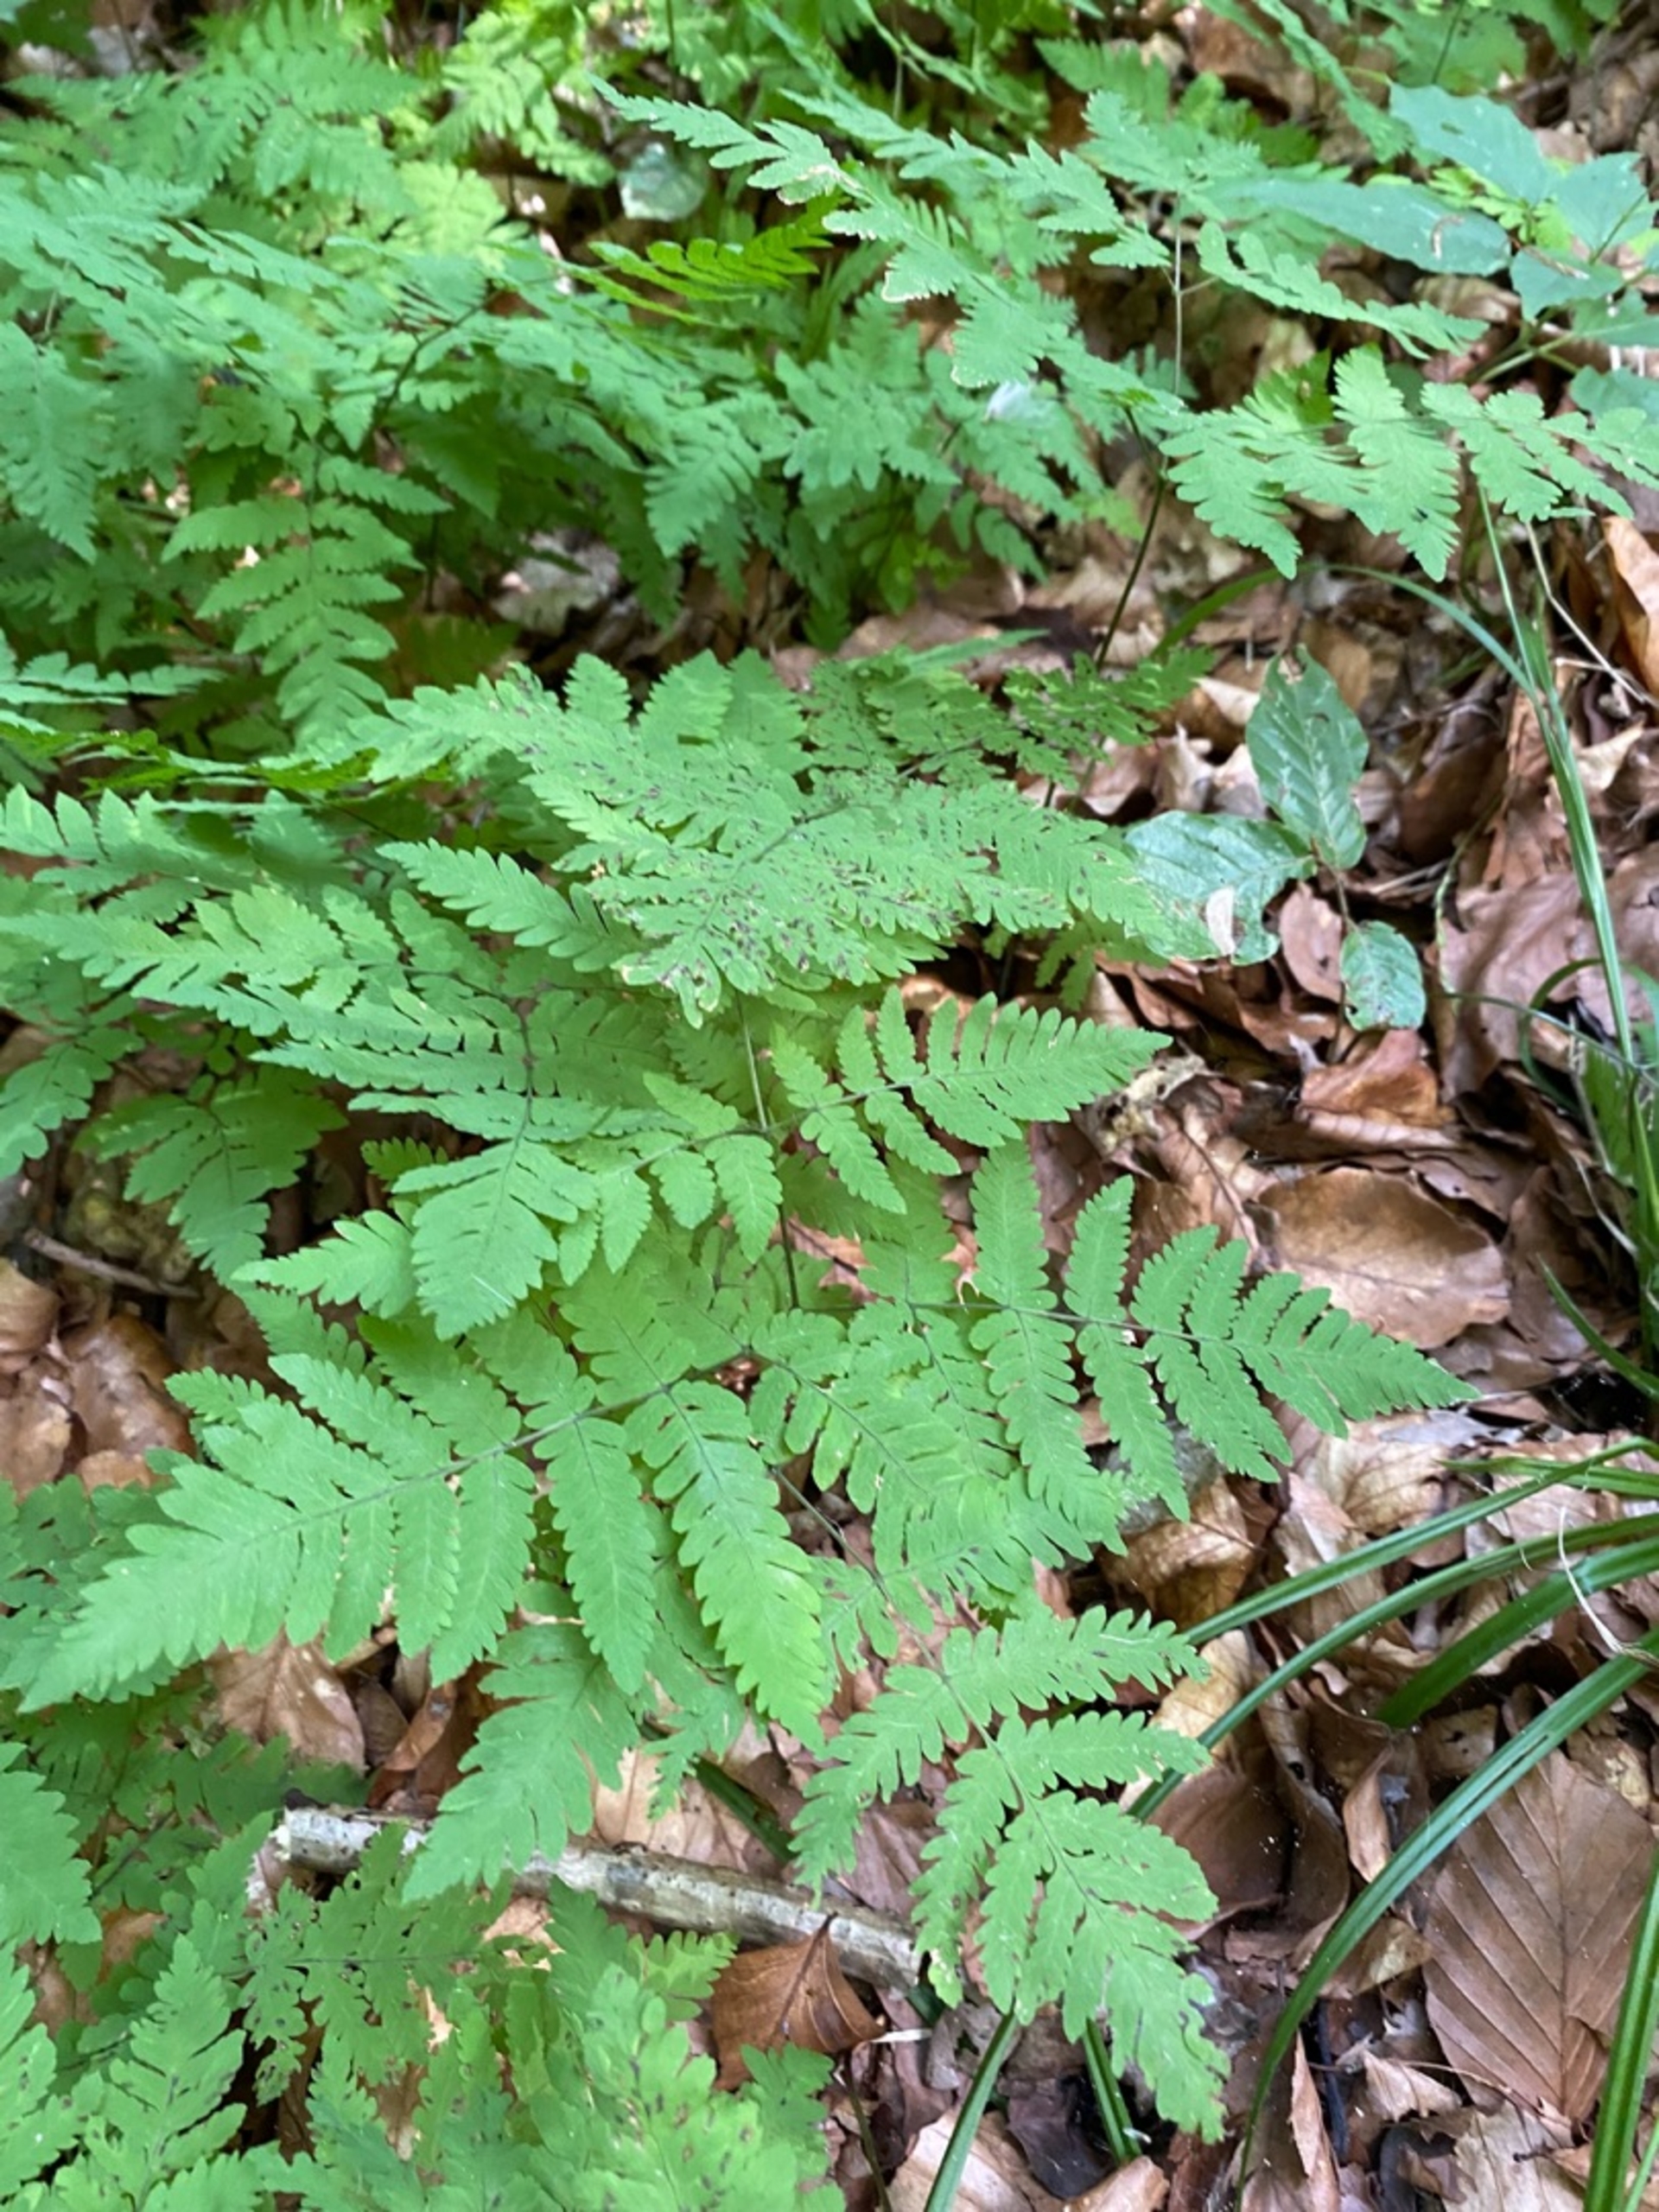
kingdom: Plantae
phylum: Tracheophyta
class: Polypodiopsida
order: Polypodiales
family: Cystopteridaceae
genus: Gymnocarpium
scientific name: Gymnocarpium dryopteris
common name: Tredelt egebregne
